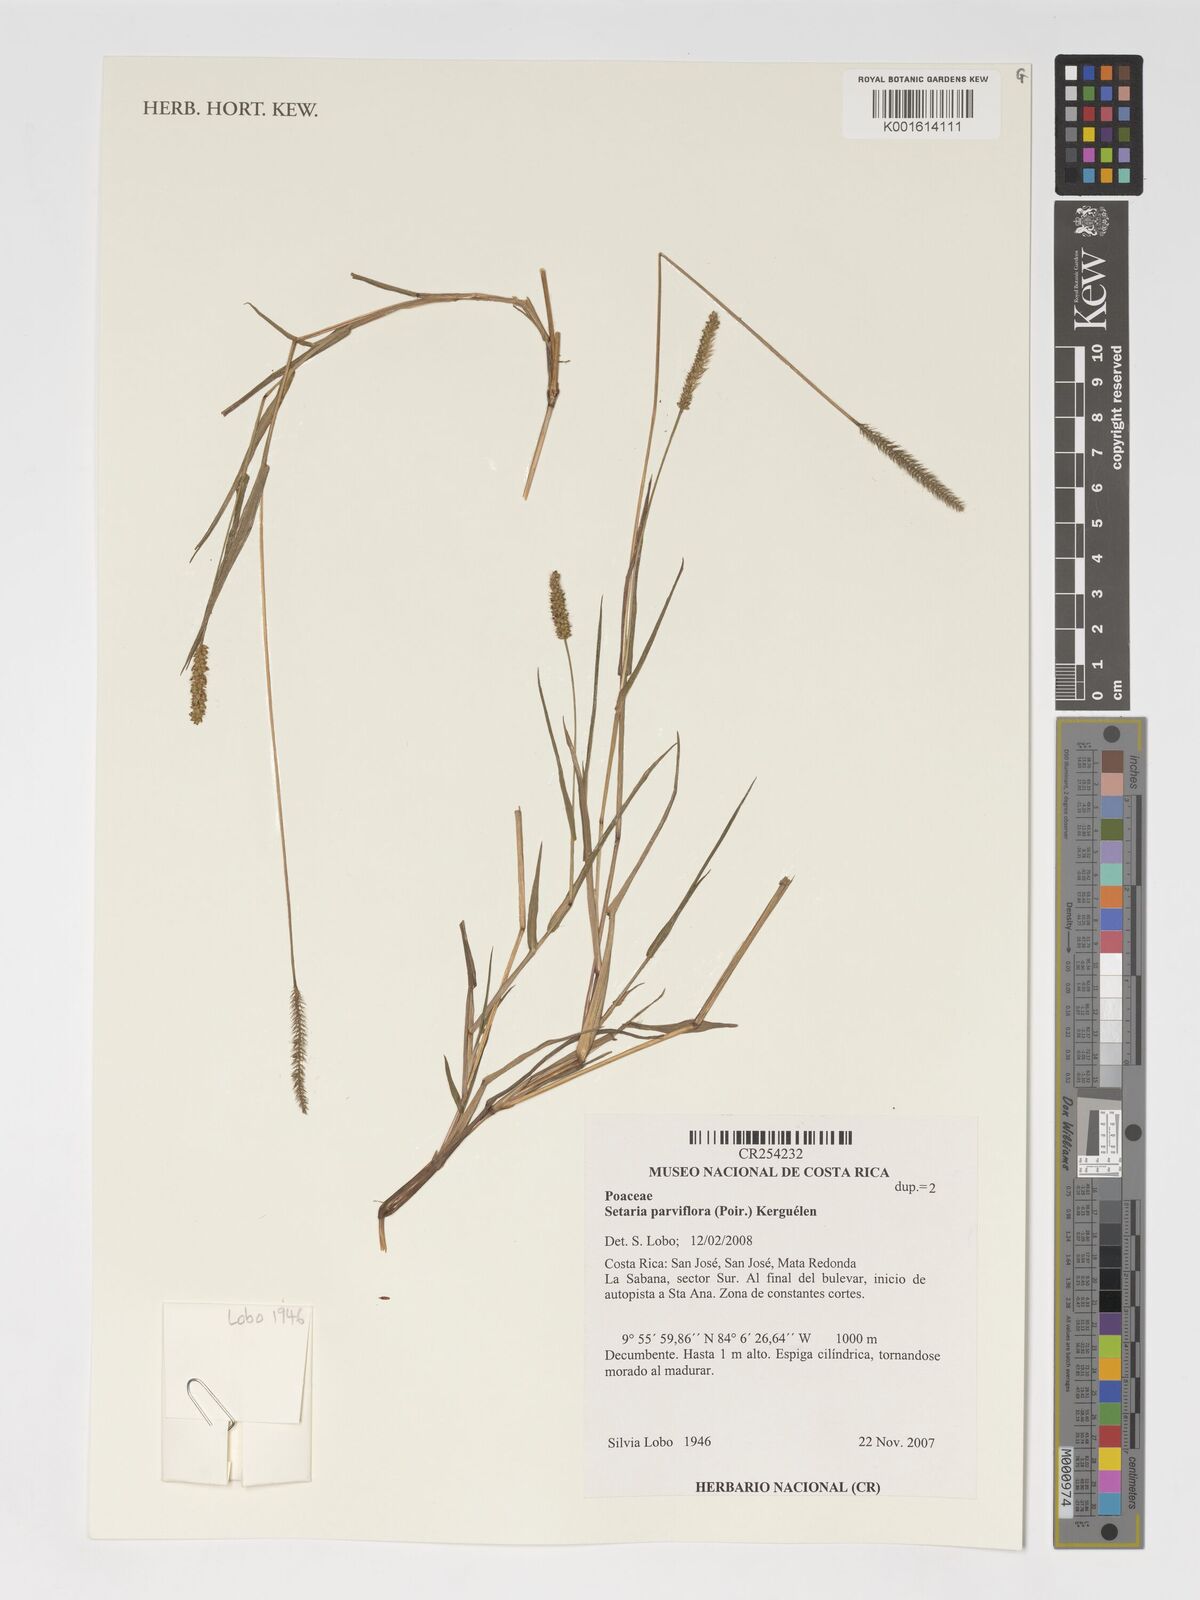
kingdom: Plantae
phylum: Tracheophyta
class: Liliopsida
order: Poales
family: Poaceae
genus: Setaria
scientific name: Setaria parviflora
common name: Knotroot bristle-grass
